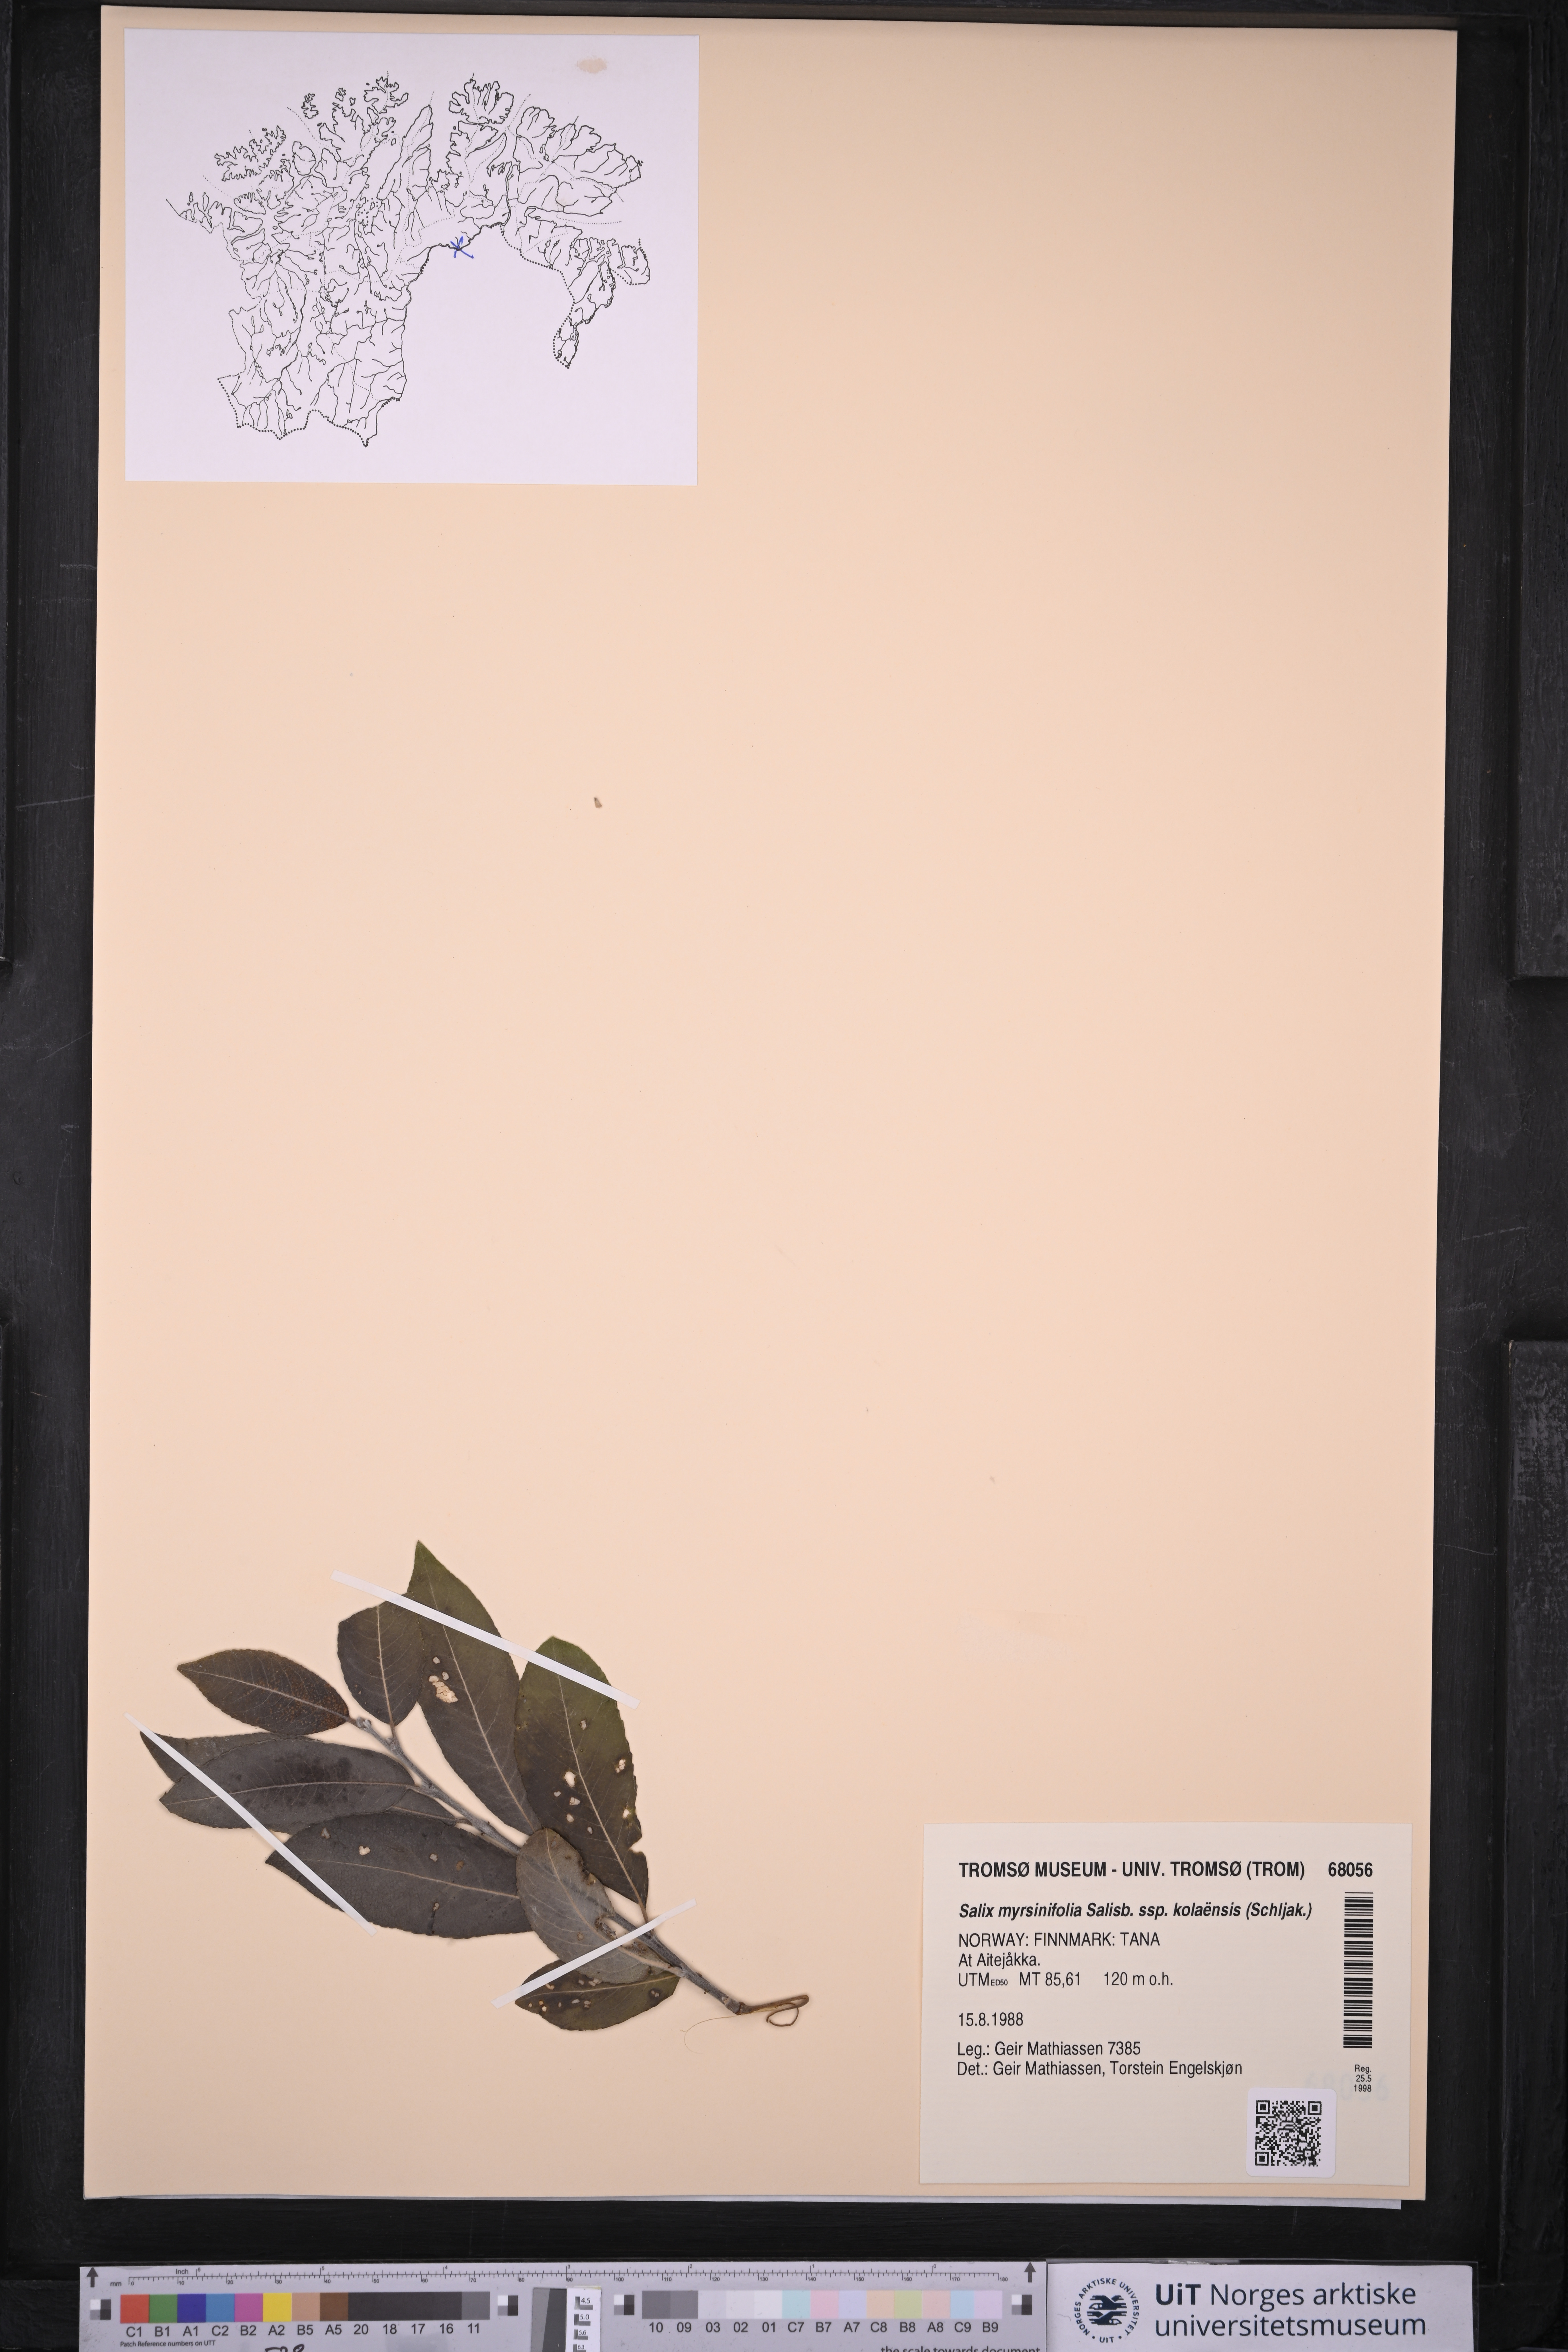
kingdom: Plantae
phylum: Tracheophyta
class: Magnoliopsida
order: Malpighiales
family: Salicaceae
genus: Salix
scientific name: Salix myrsinifolia
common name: Dark-leaved willow
